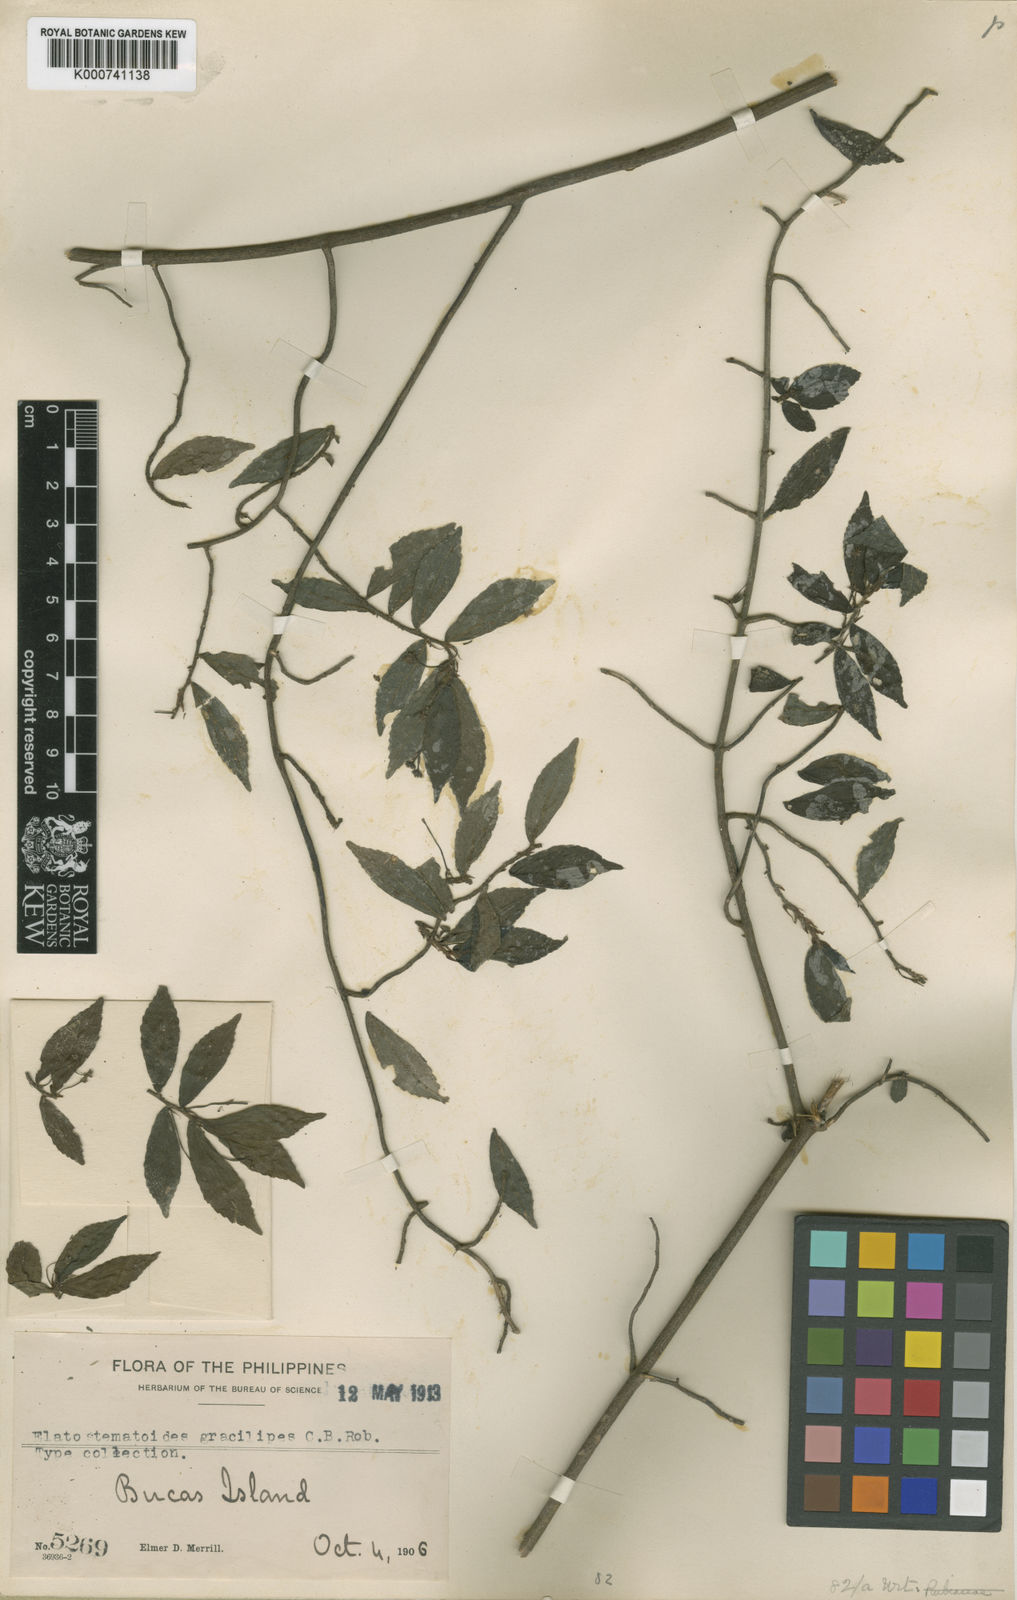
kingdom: Plantae
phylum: Tracheophyta
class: Magnoliopsida
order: Rosales
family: Urticaceae
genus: Elatostematoides
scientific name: Elatostematoides gracilipes
